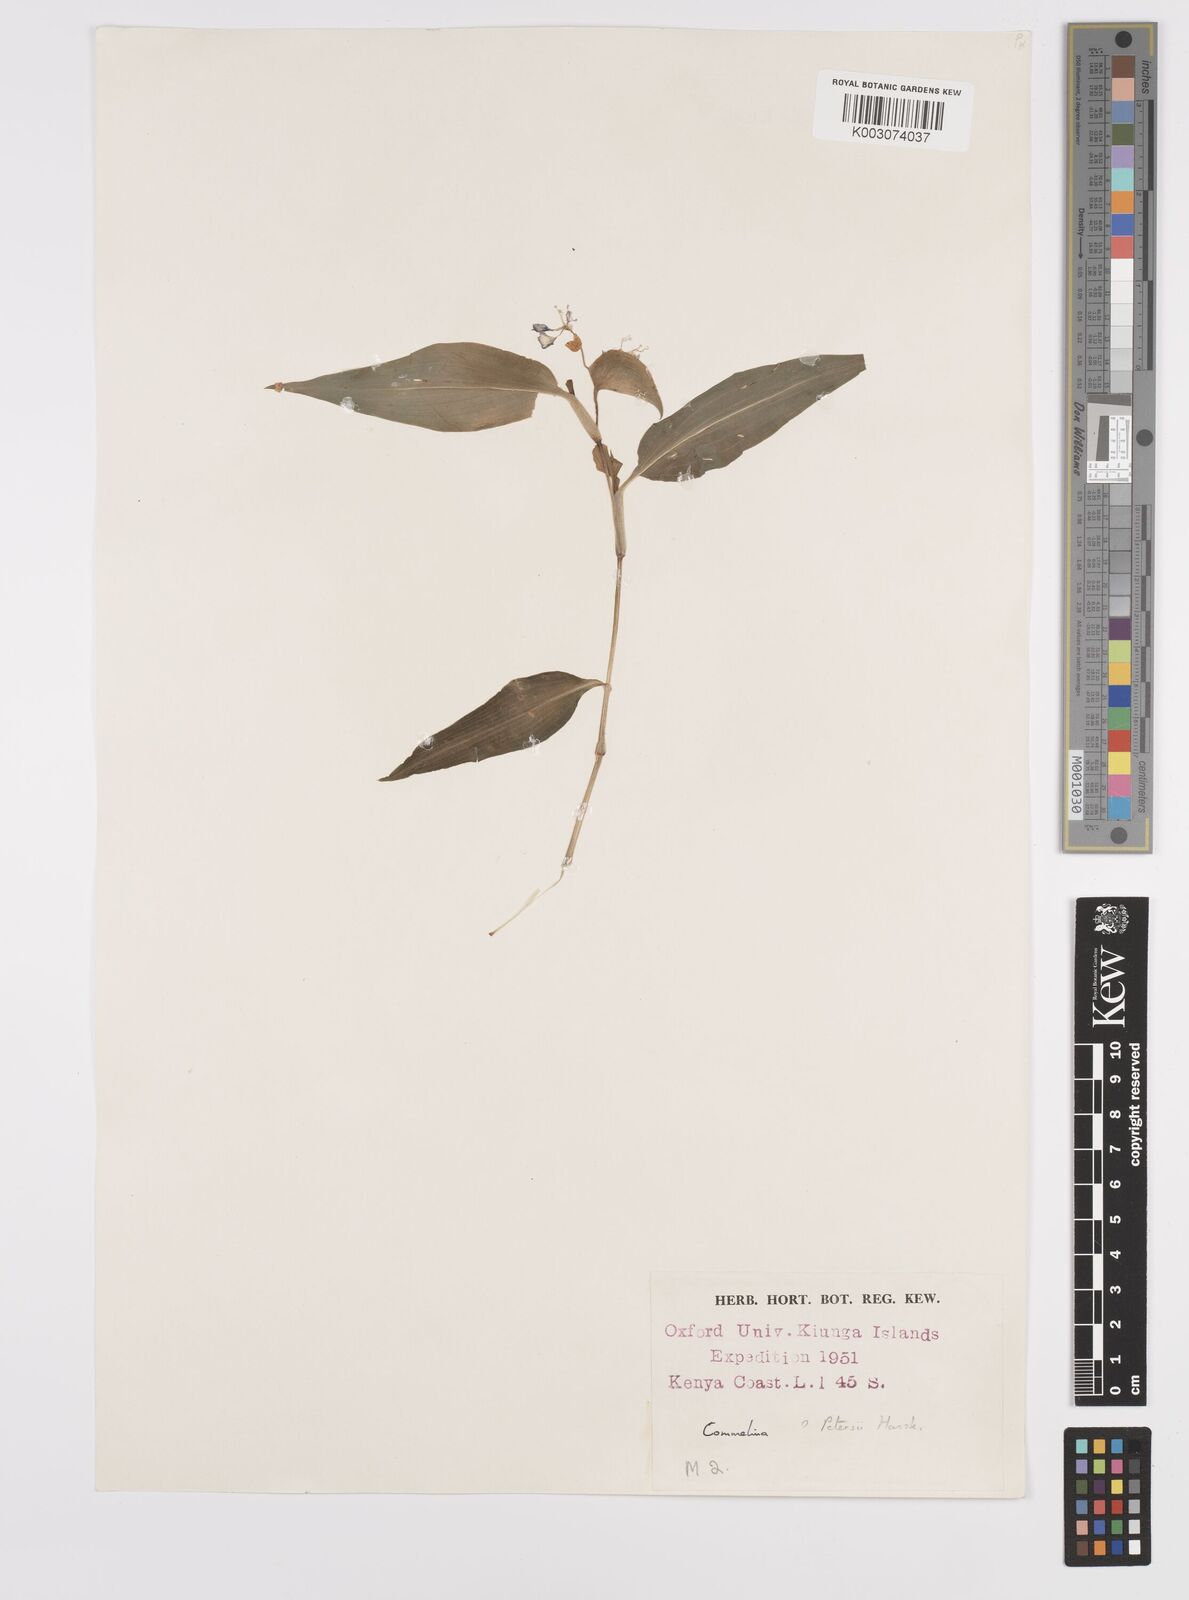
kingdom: Plantae
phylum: Tracheophyta
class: Liliopsida
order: Commelinales
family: Commelinaceae
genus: Commelina
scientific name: Commelina petersii
